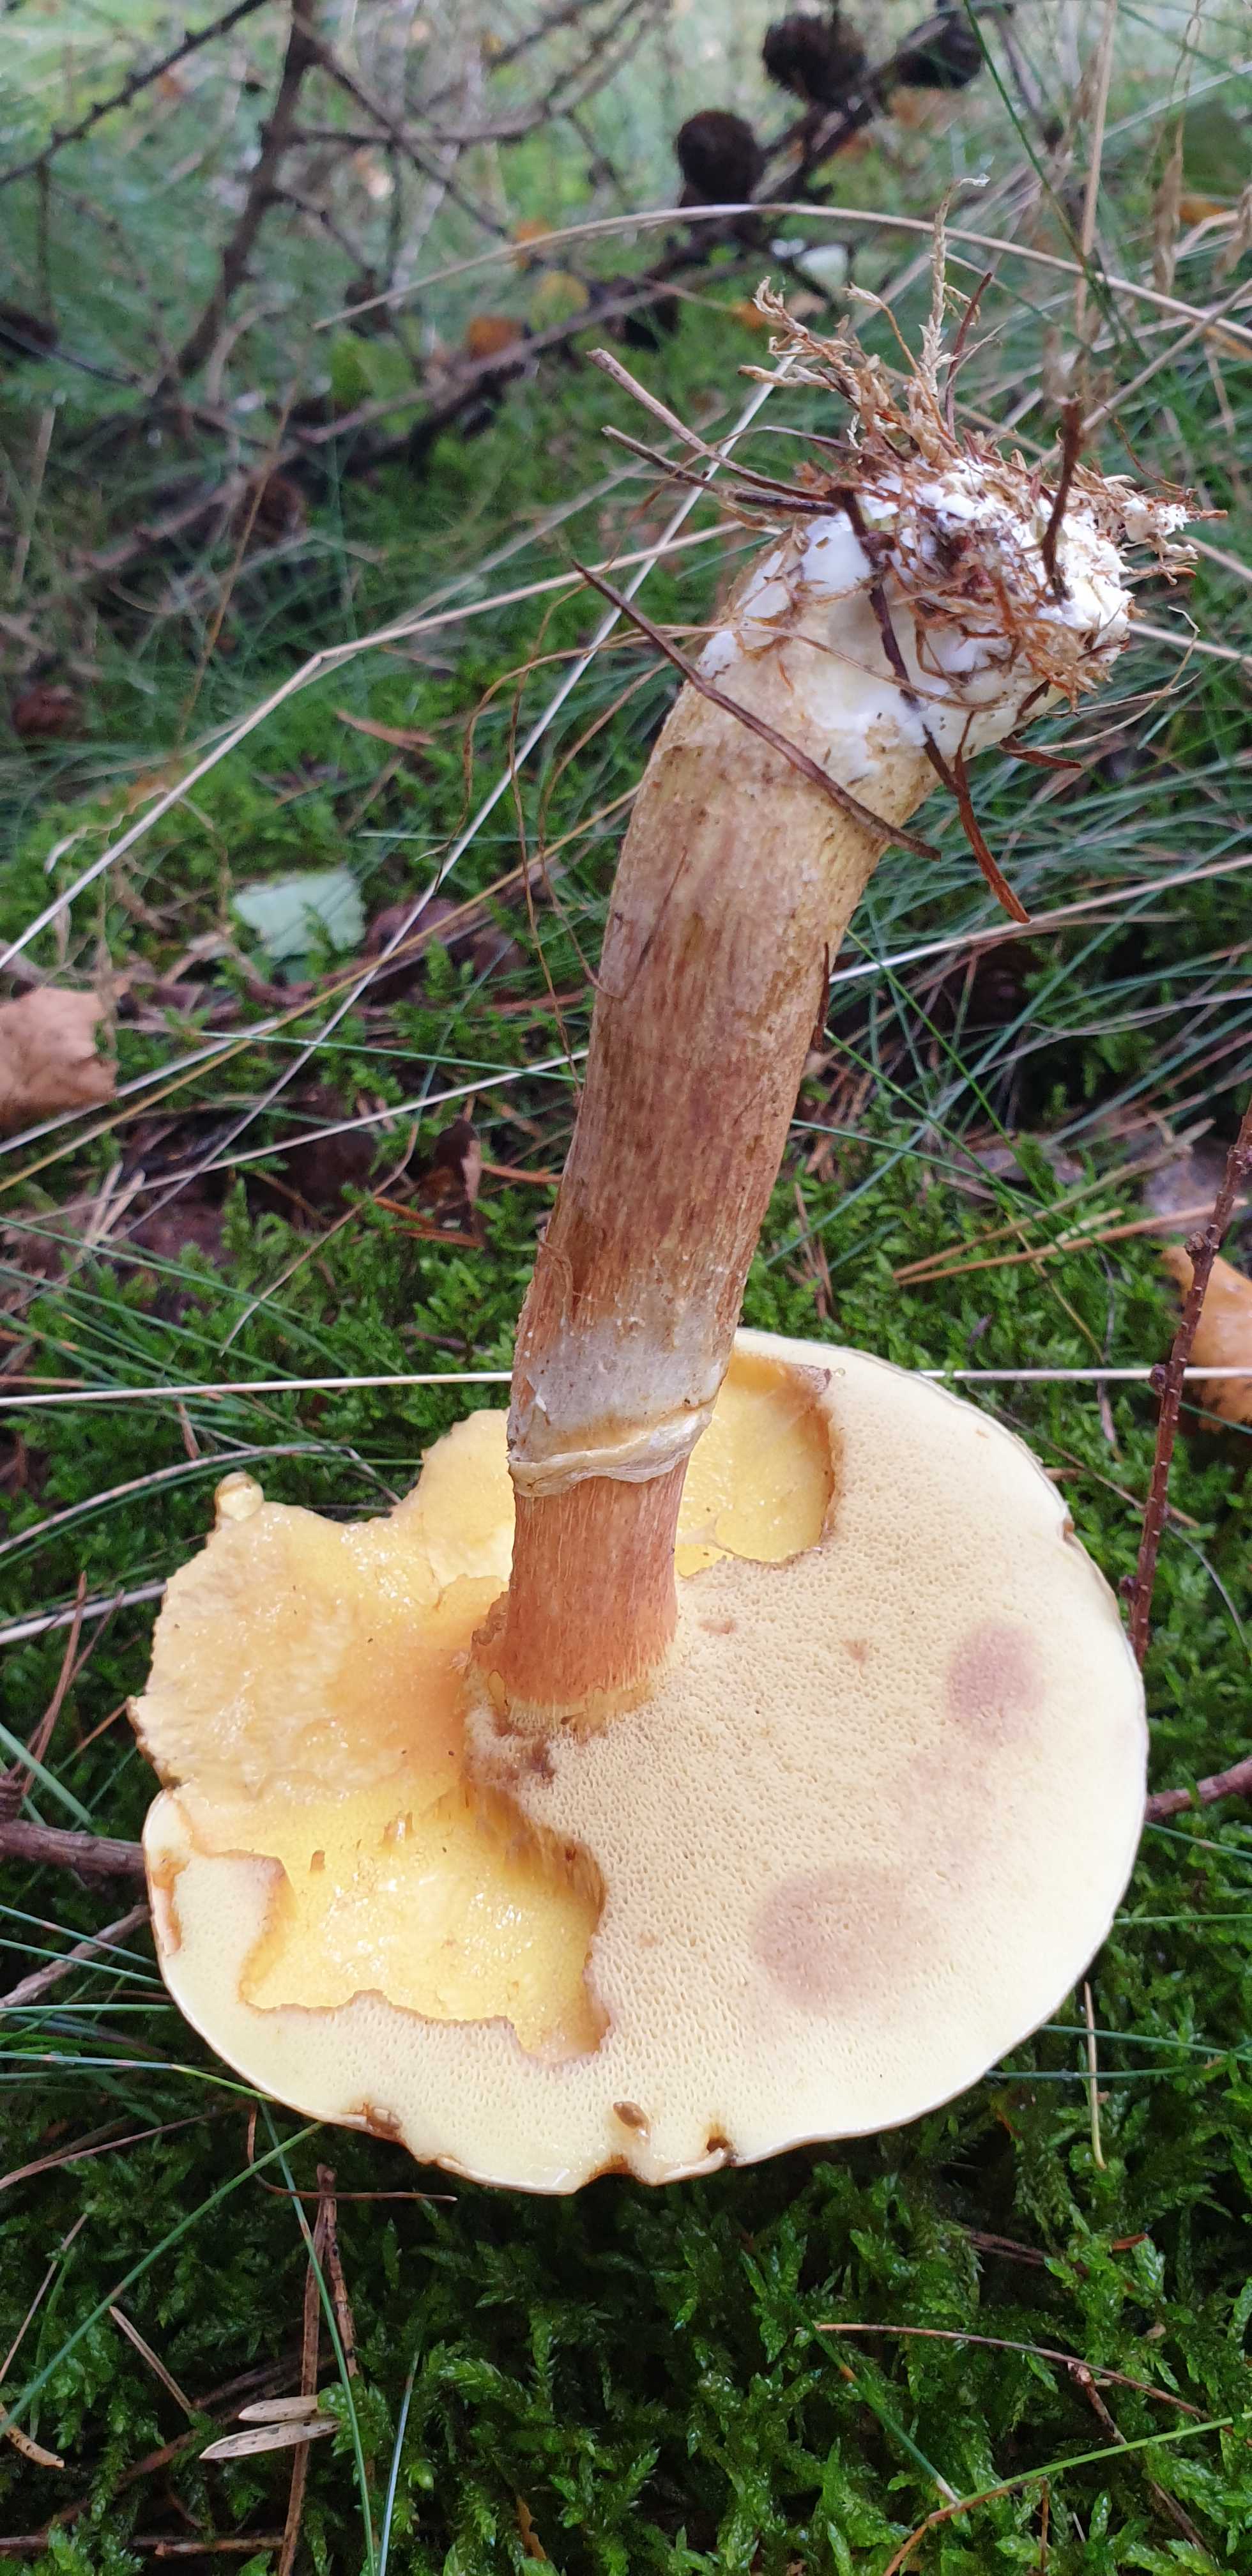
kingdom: Fungi
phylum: Basidiomycota
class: Agaricomycetes
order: Boletales
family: Suillaceae
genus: Suillus
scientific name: Suillus grevillei
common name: lærke-slimrørhat
